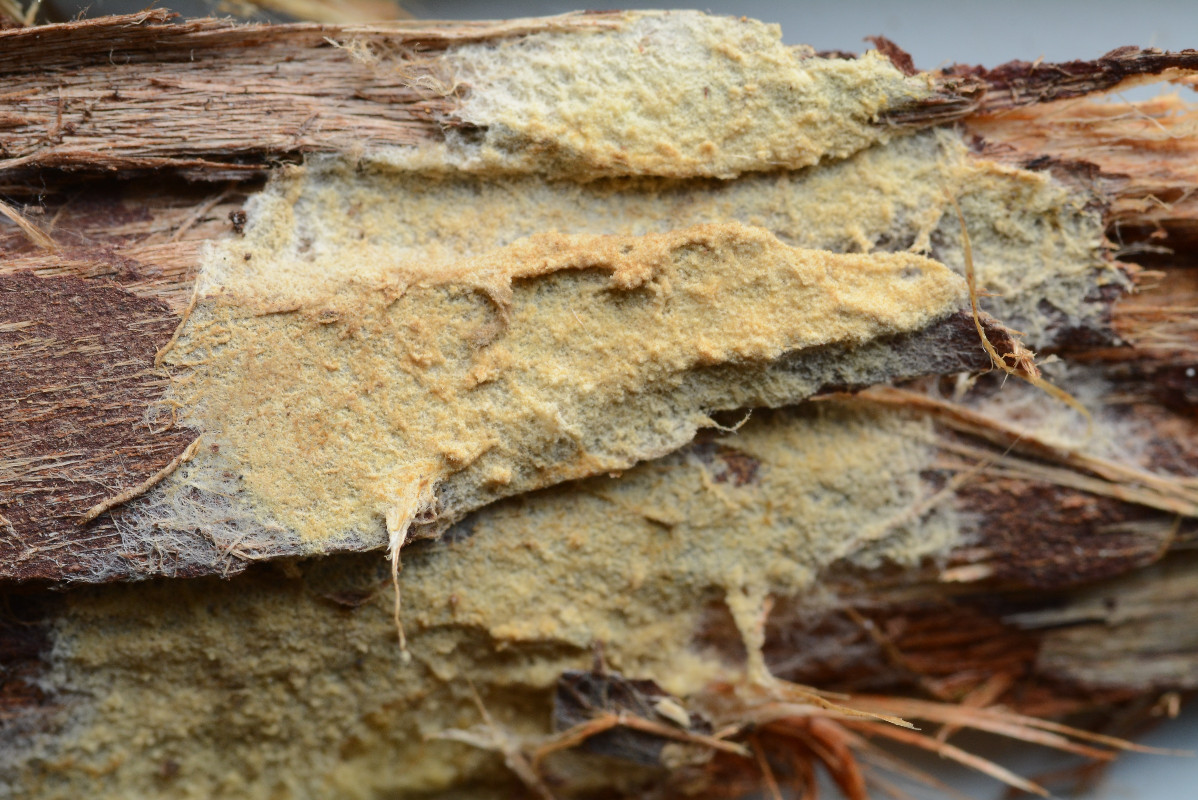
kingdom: Fungi
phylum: Basidiomycota
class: Agaricomycetes
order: Boletales
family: Coniophoraceae
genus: Coniophora
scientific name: Coniophora arida
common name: tynd tømmersvamp
